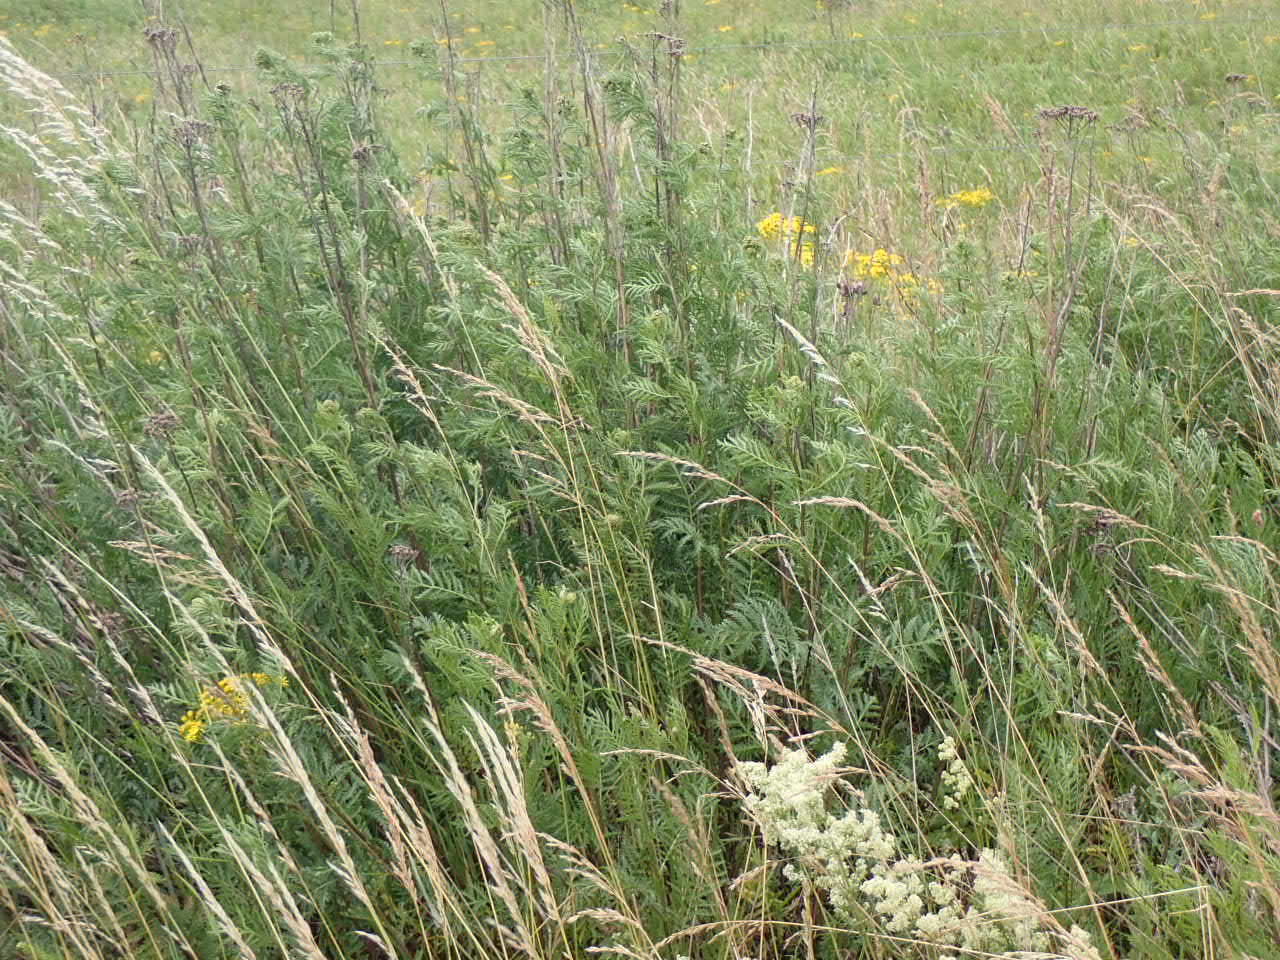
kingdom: Plantae
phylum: Tracheophyta
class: Magnoliopsida
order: Asterales
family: Asteraceae
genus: Tanacetum
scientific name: Tanacetum vulgare
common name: Rejnfan
